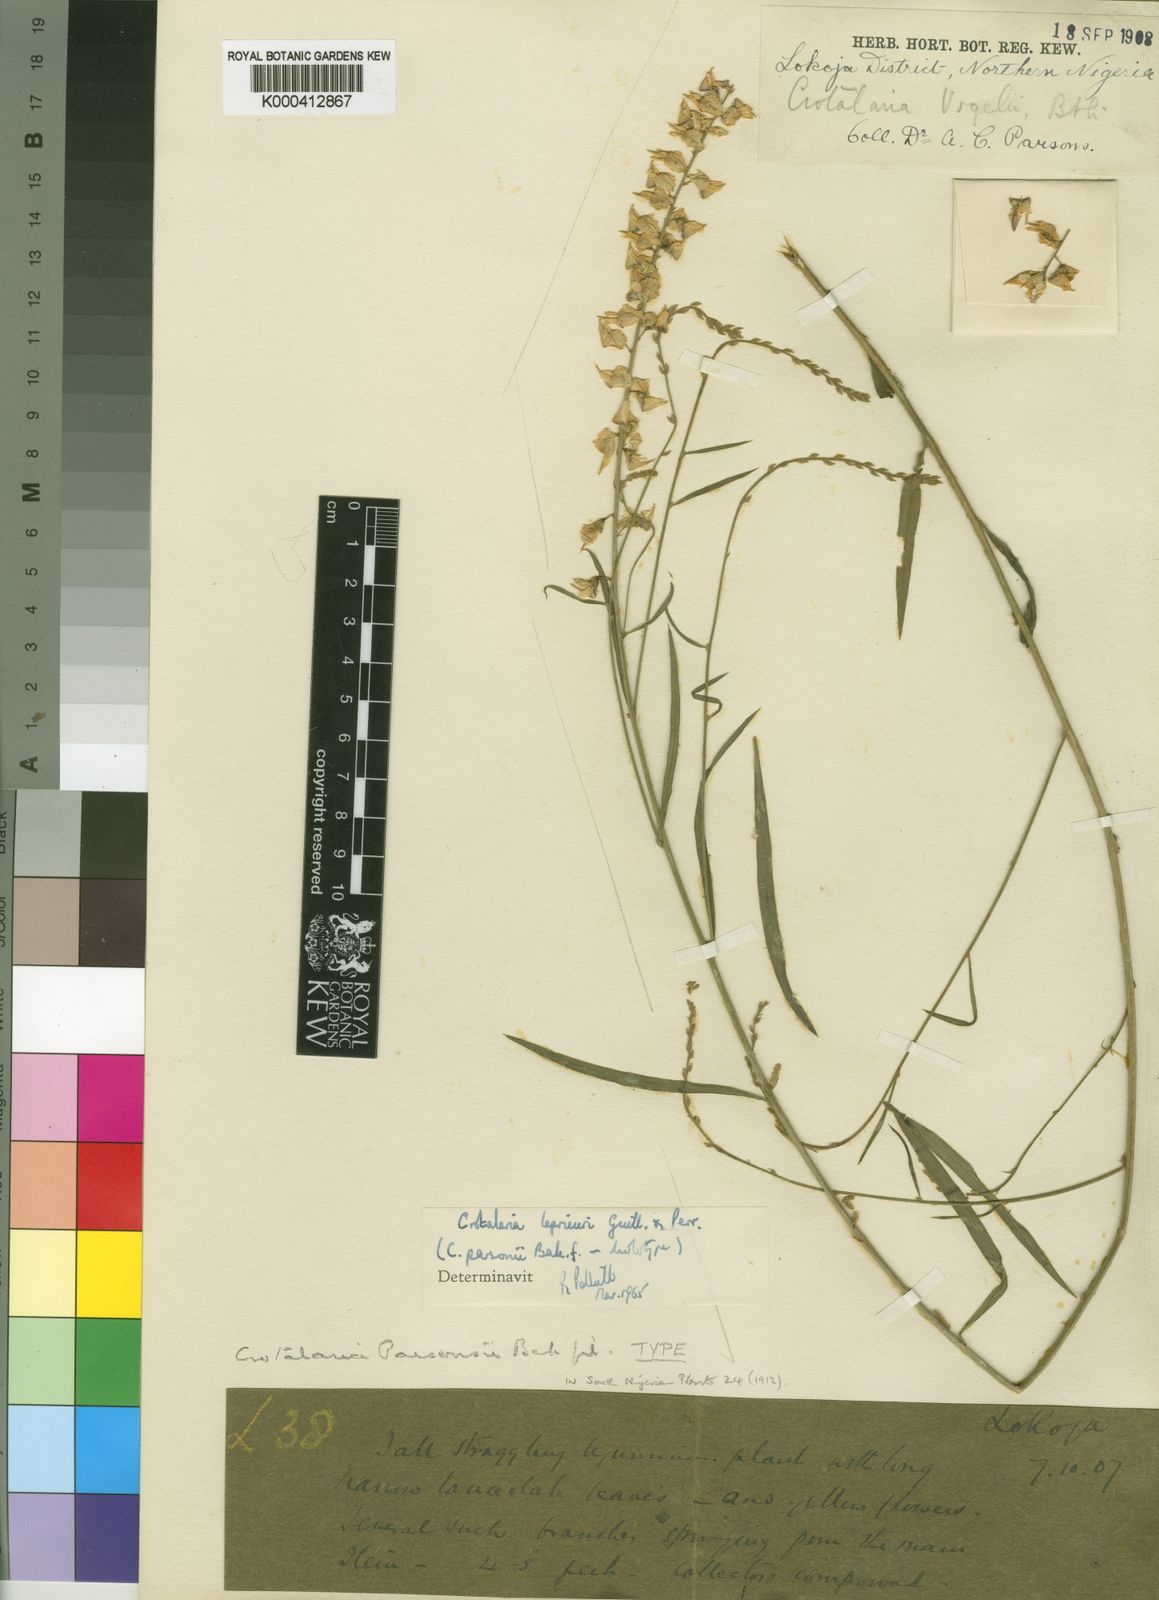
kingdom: Plantae
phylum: Tracheophyta
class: Magnoliopsida
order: Fabales
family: Fabaceae
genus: Crotalaria
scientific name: Crotalaria leprieurii
